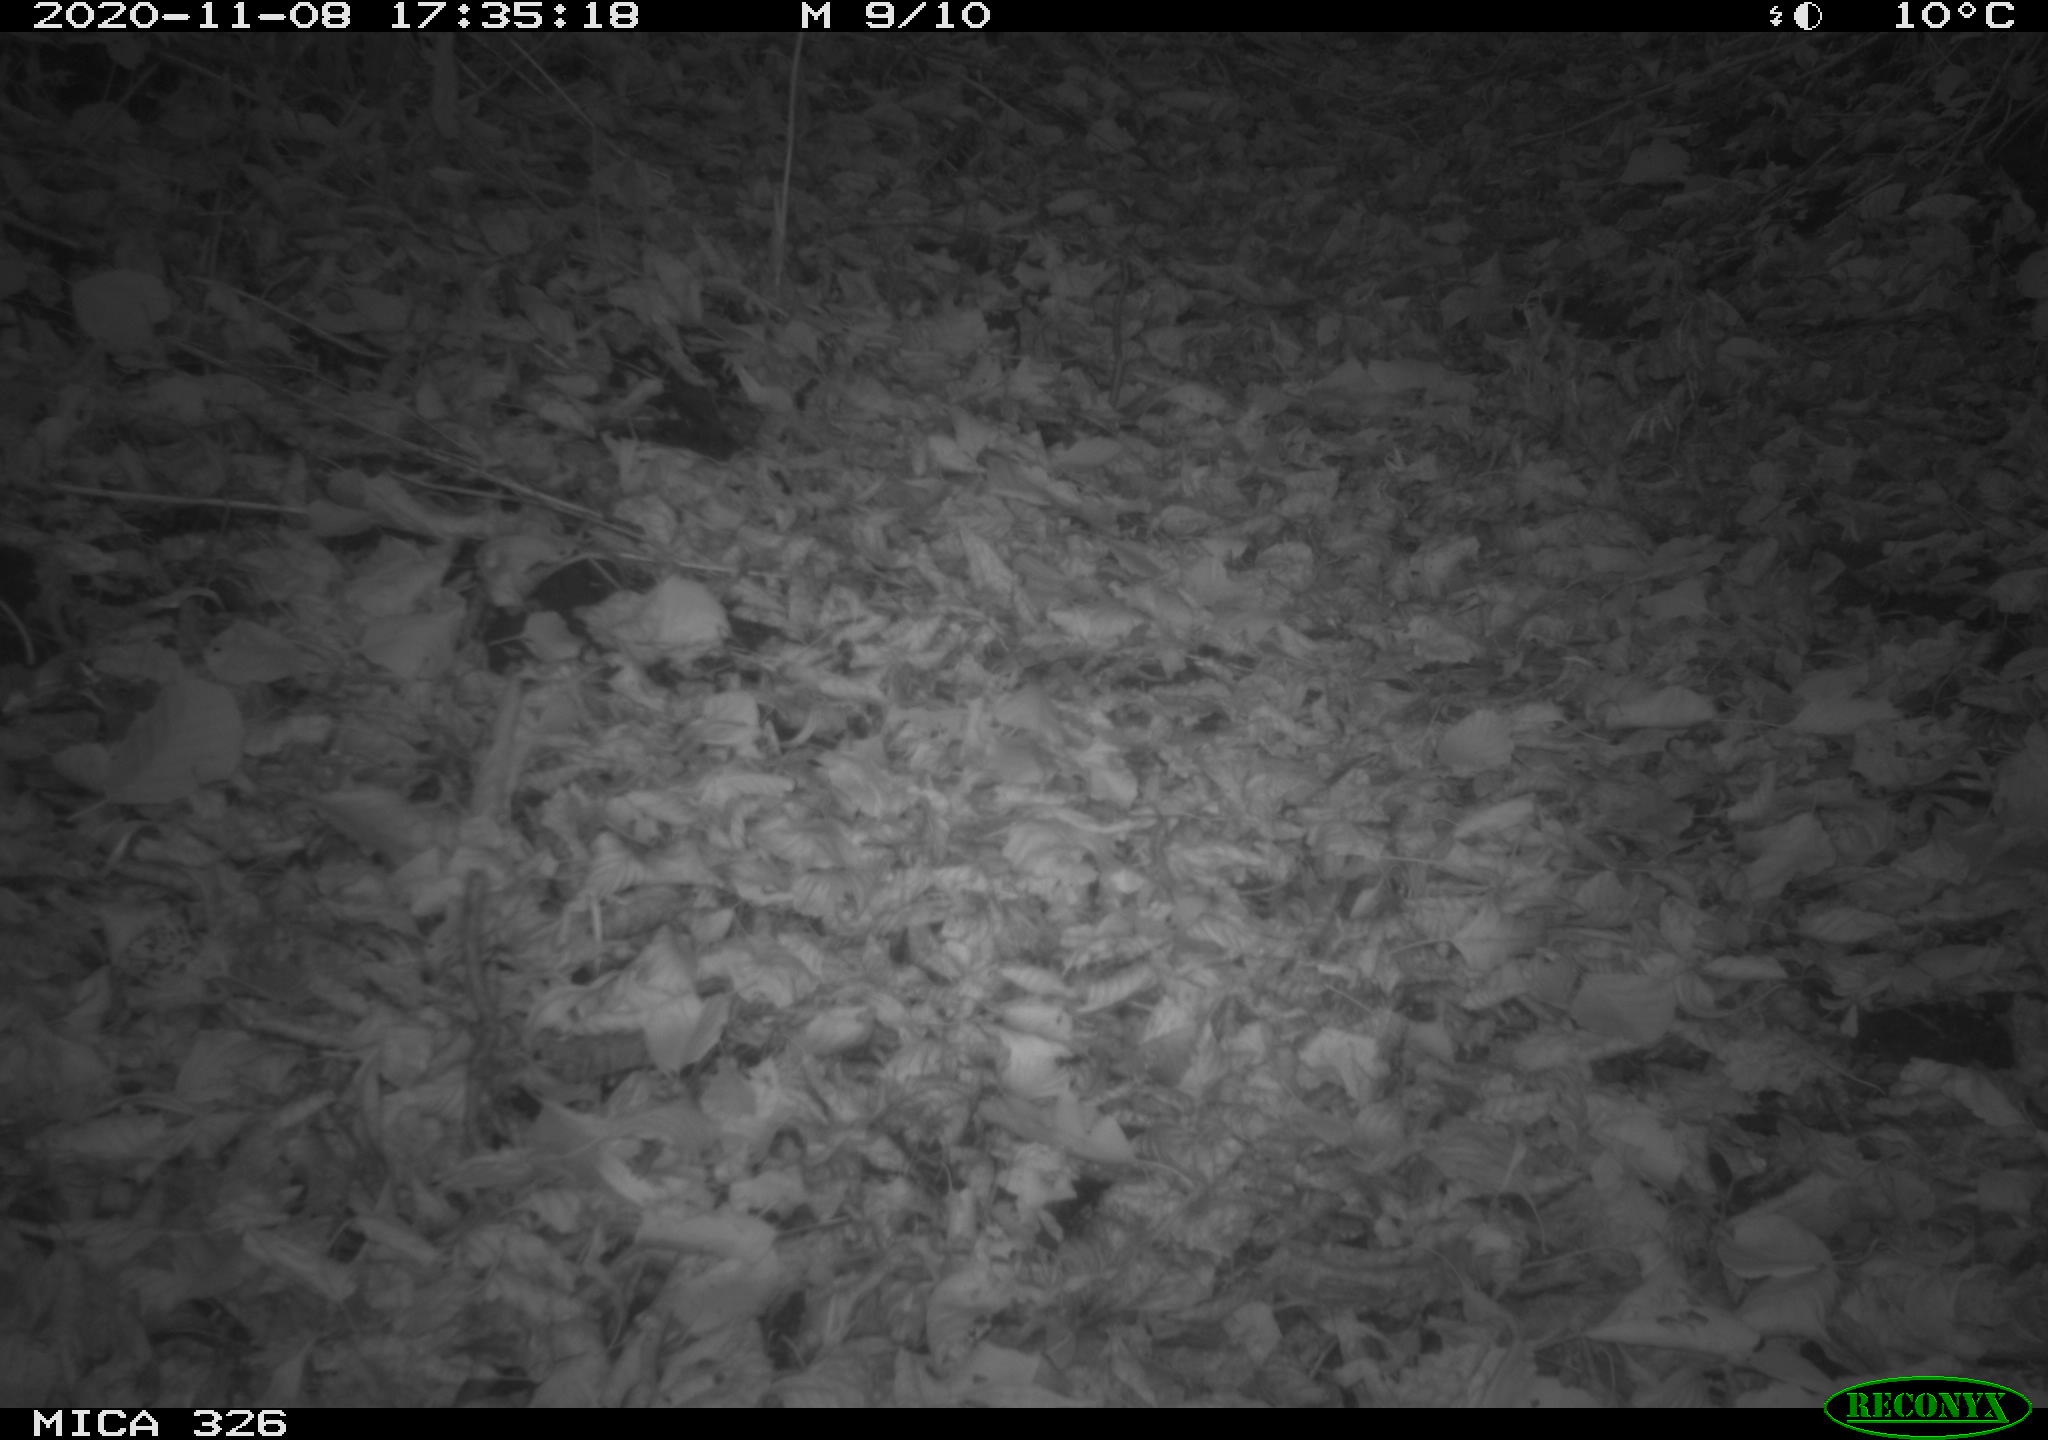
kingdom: Animalia
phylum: Chordata
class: Aves
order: Passeriformes
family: Turdidae
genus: Turdus
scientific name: Turdus merula
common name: Common blackbird
